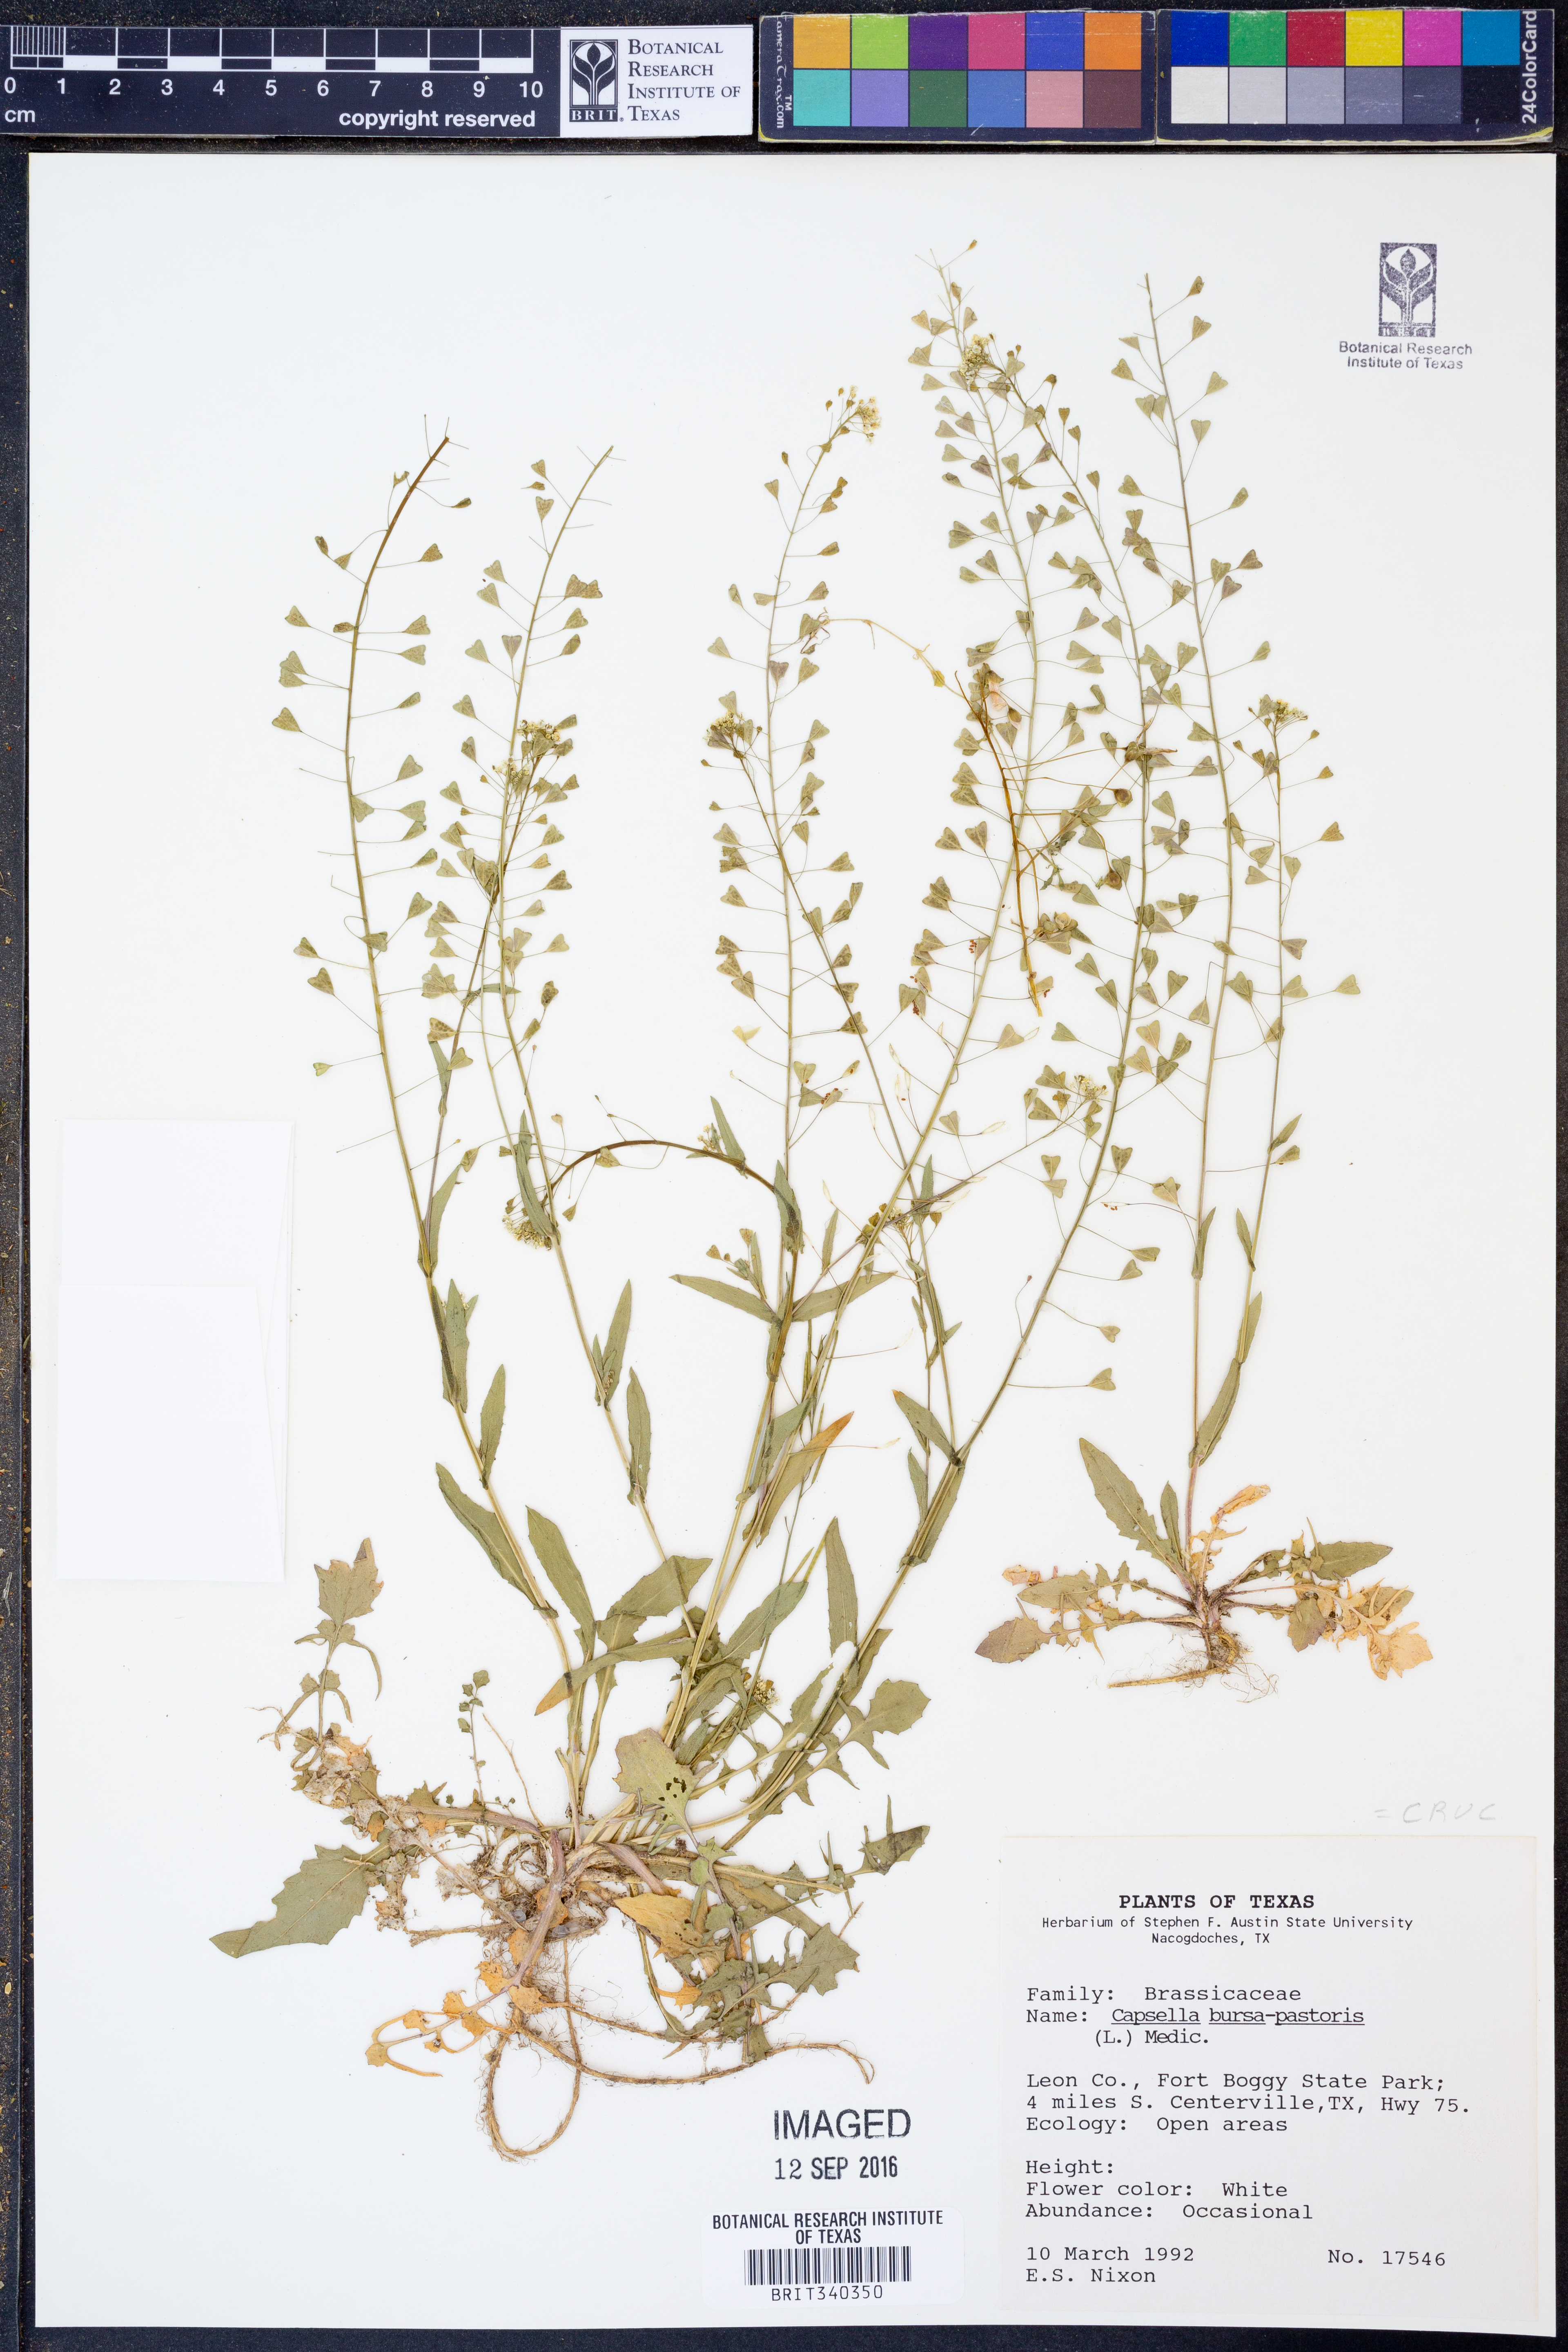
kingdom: Plantae
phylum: Tracheophyta
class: Magnoliopsida
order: Brassicales
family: Brassicaceae
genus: Capsella
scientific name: Capsella bursa-pastoris
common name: Shepherd's purse
